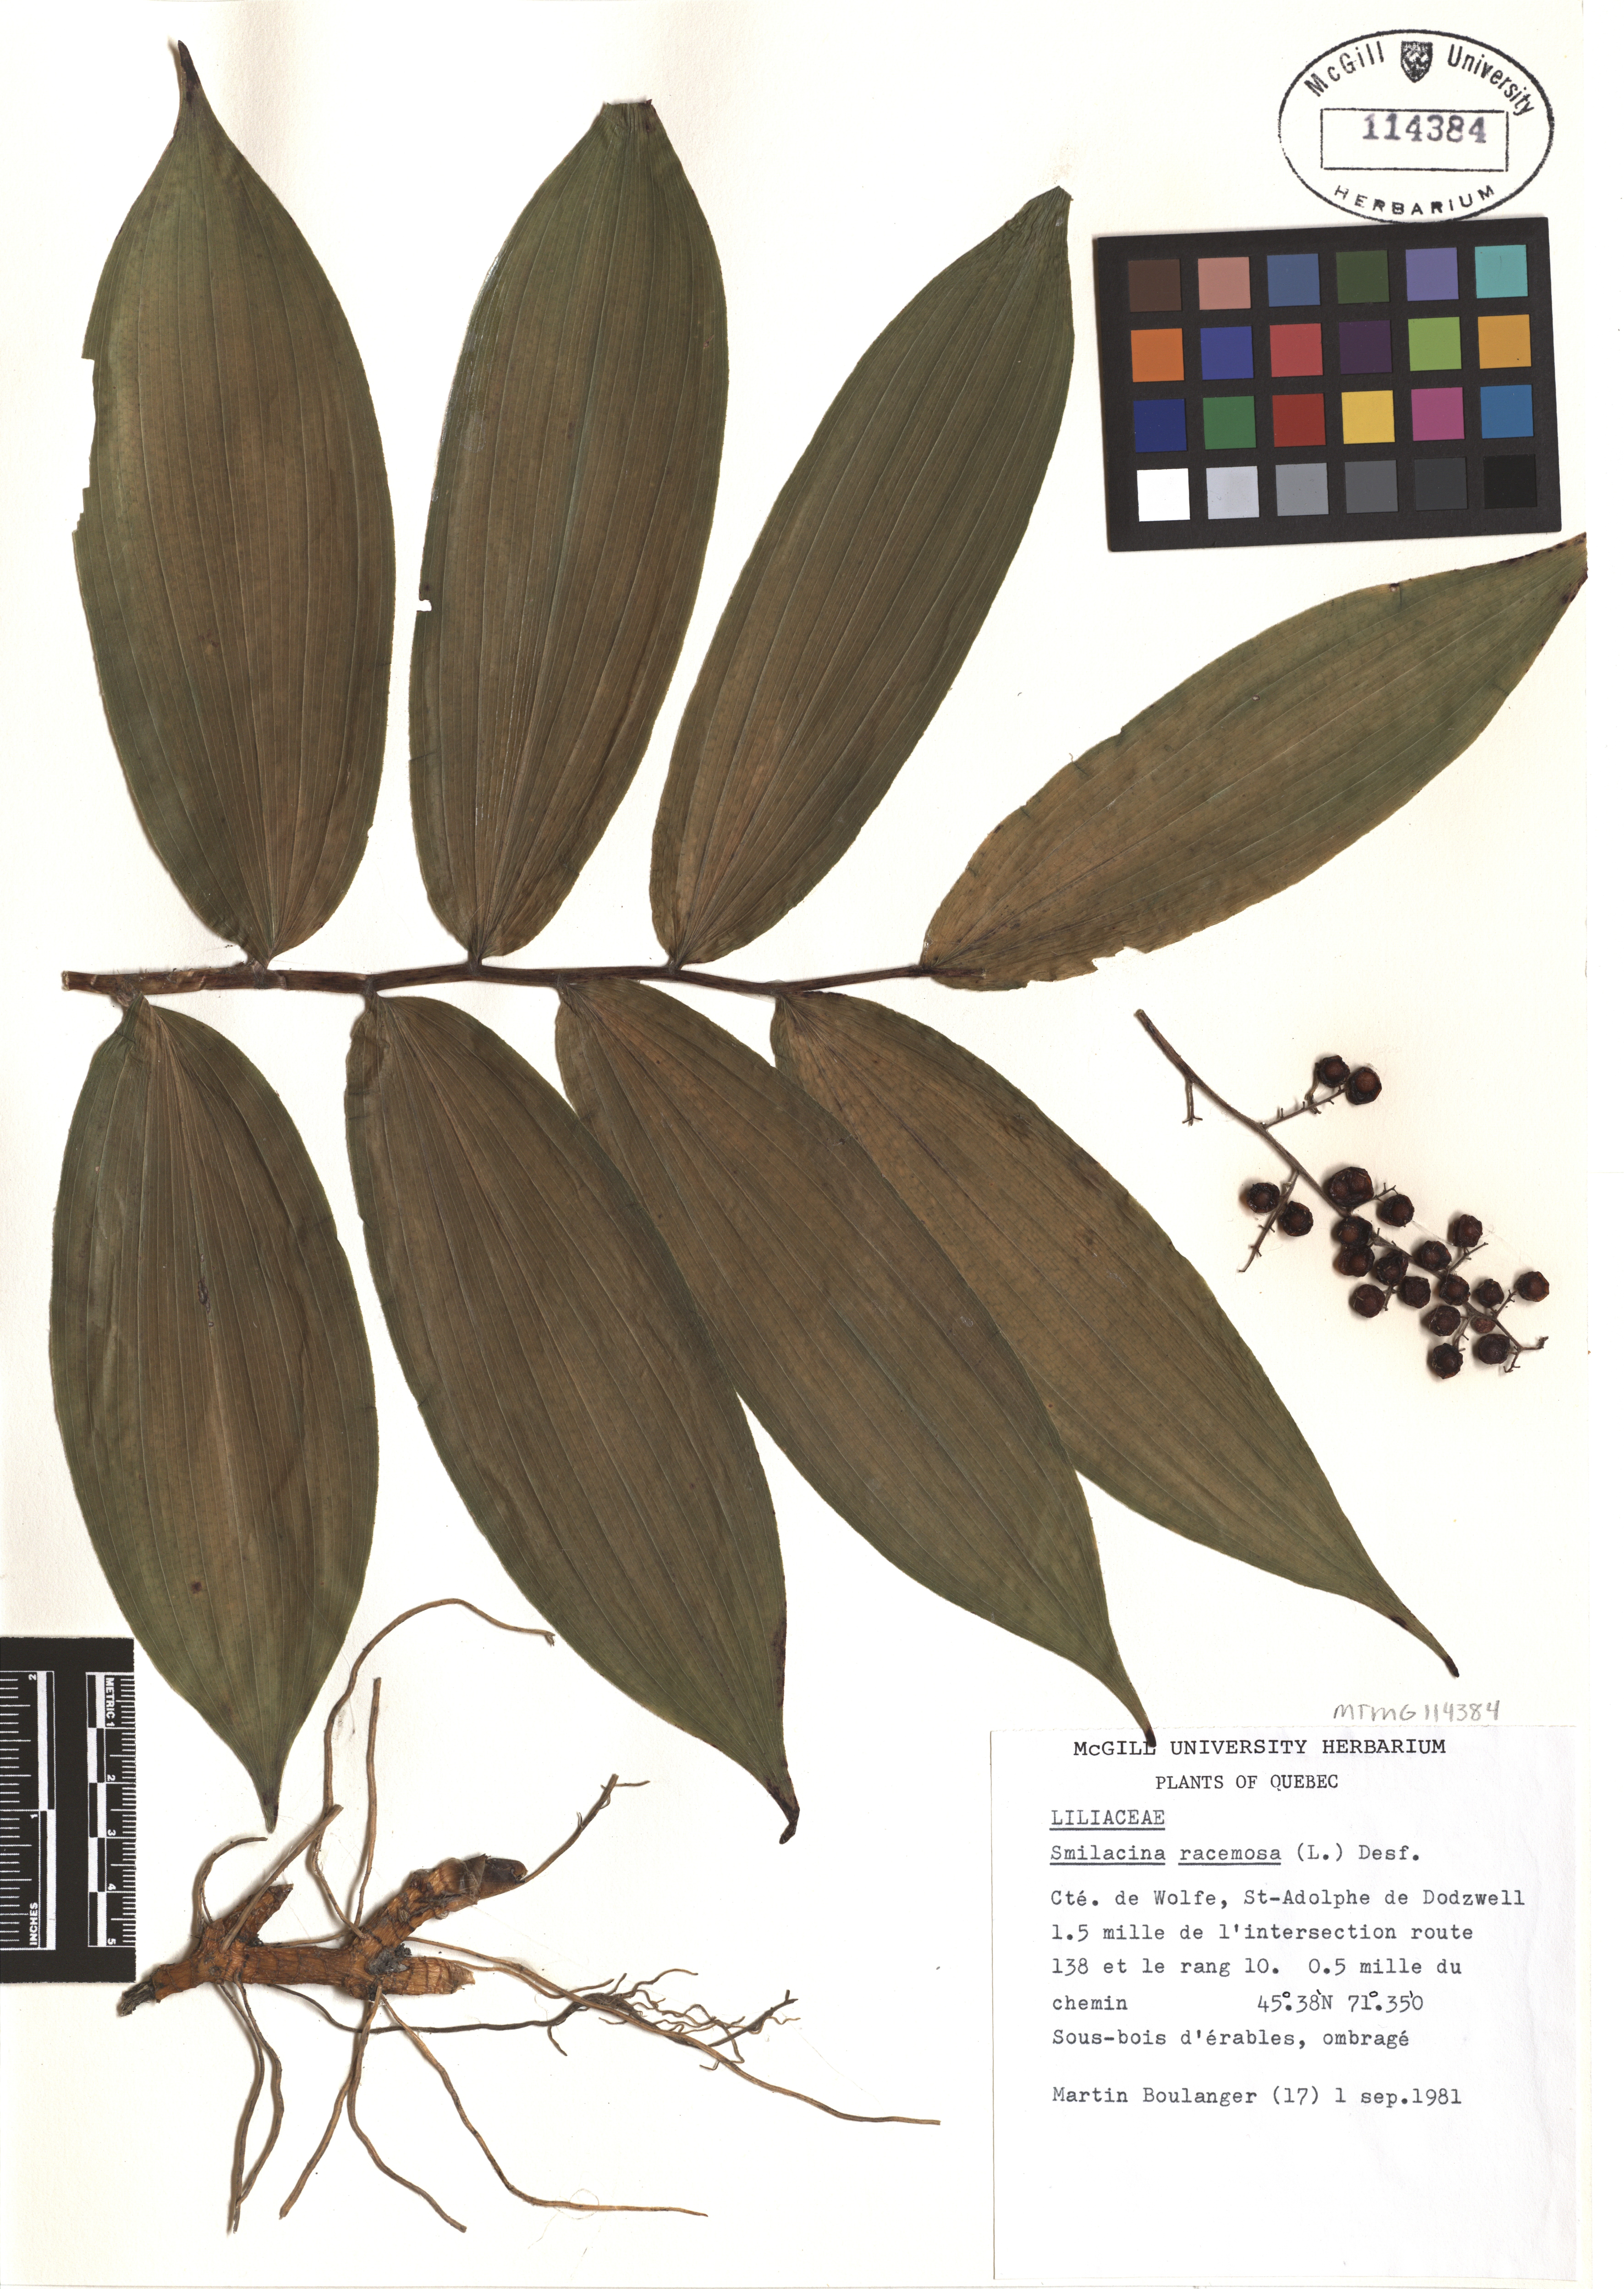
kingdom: Plantae
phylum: Tracheophyta
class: Liliopsida
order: Asparagales
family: Asparagaceae
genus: Maianthemum
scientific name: Maianthemum racemosum
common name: False spikenard
